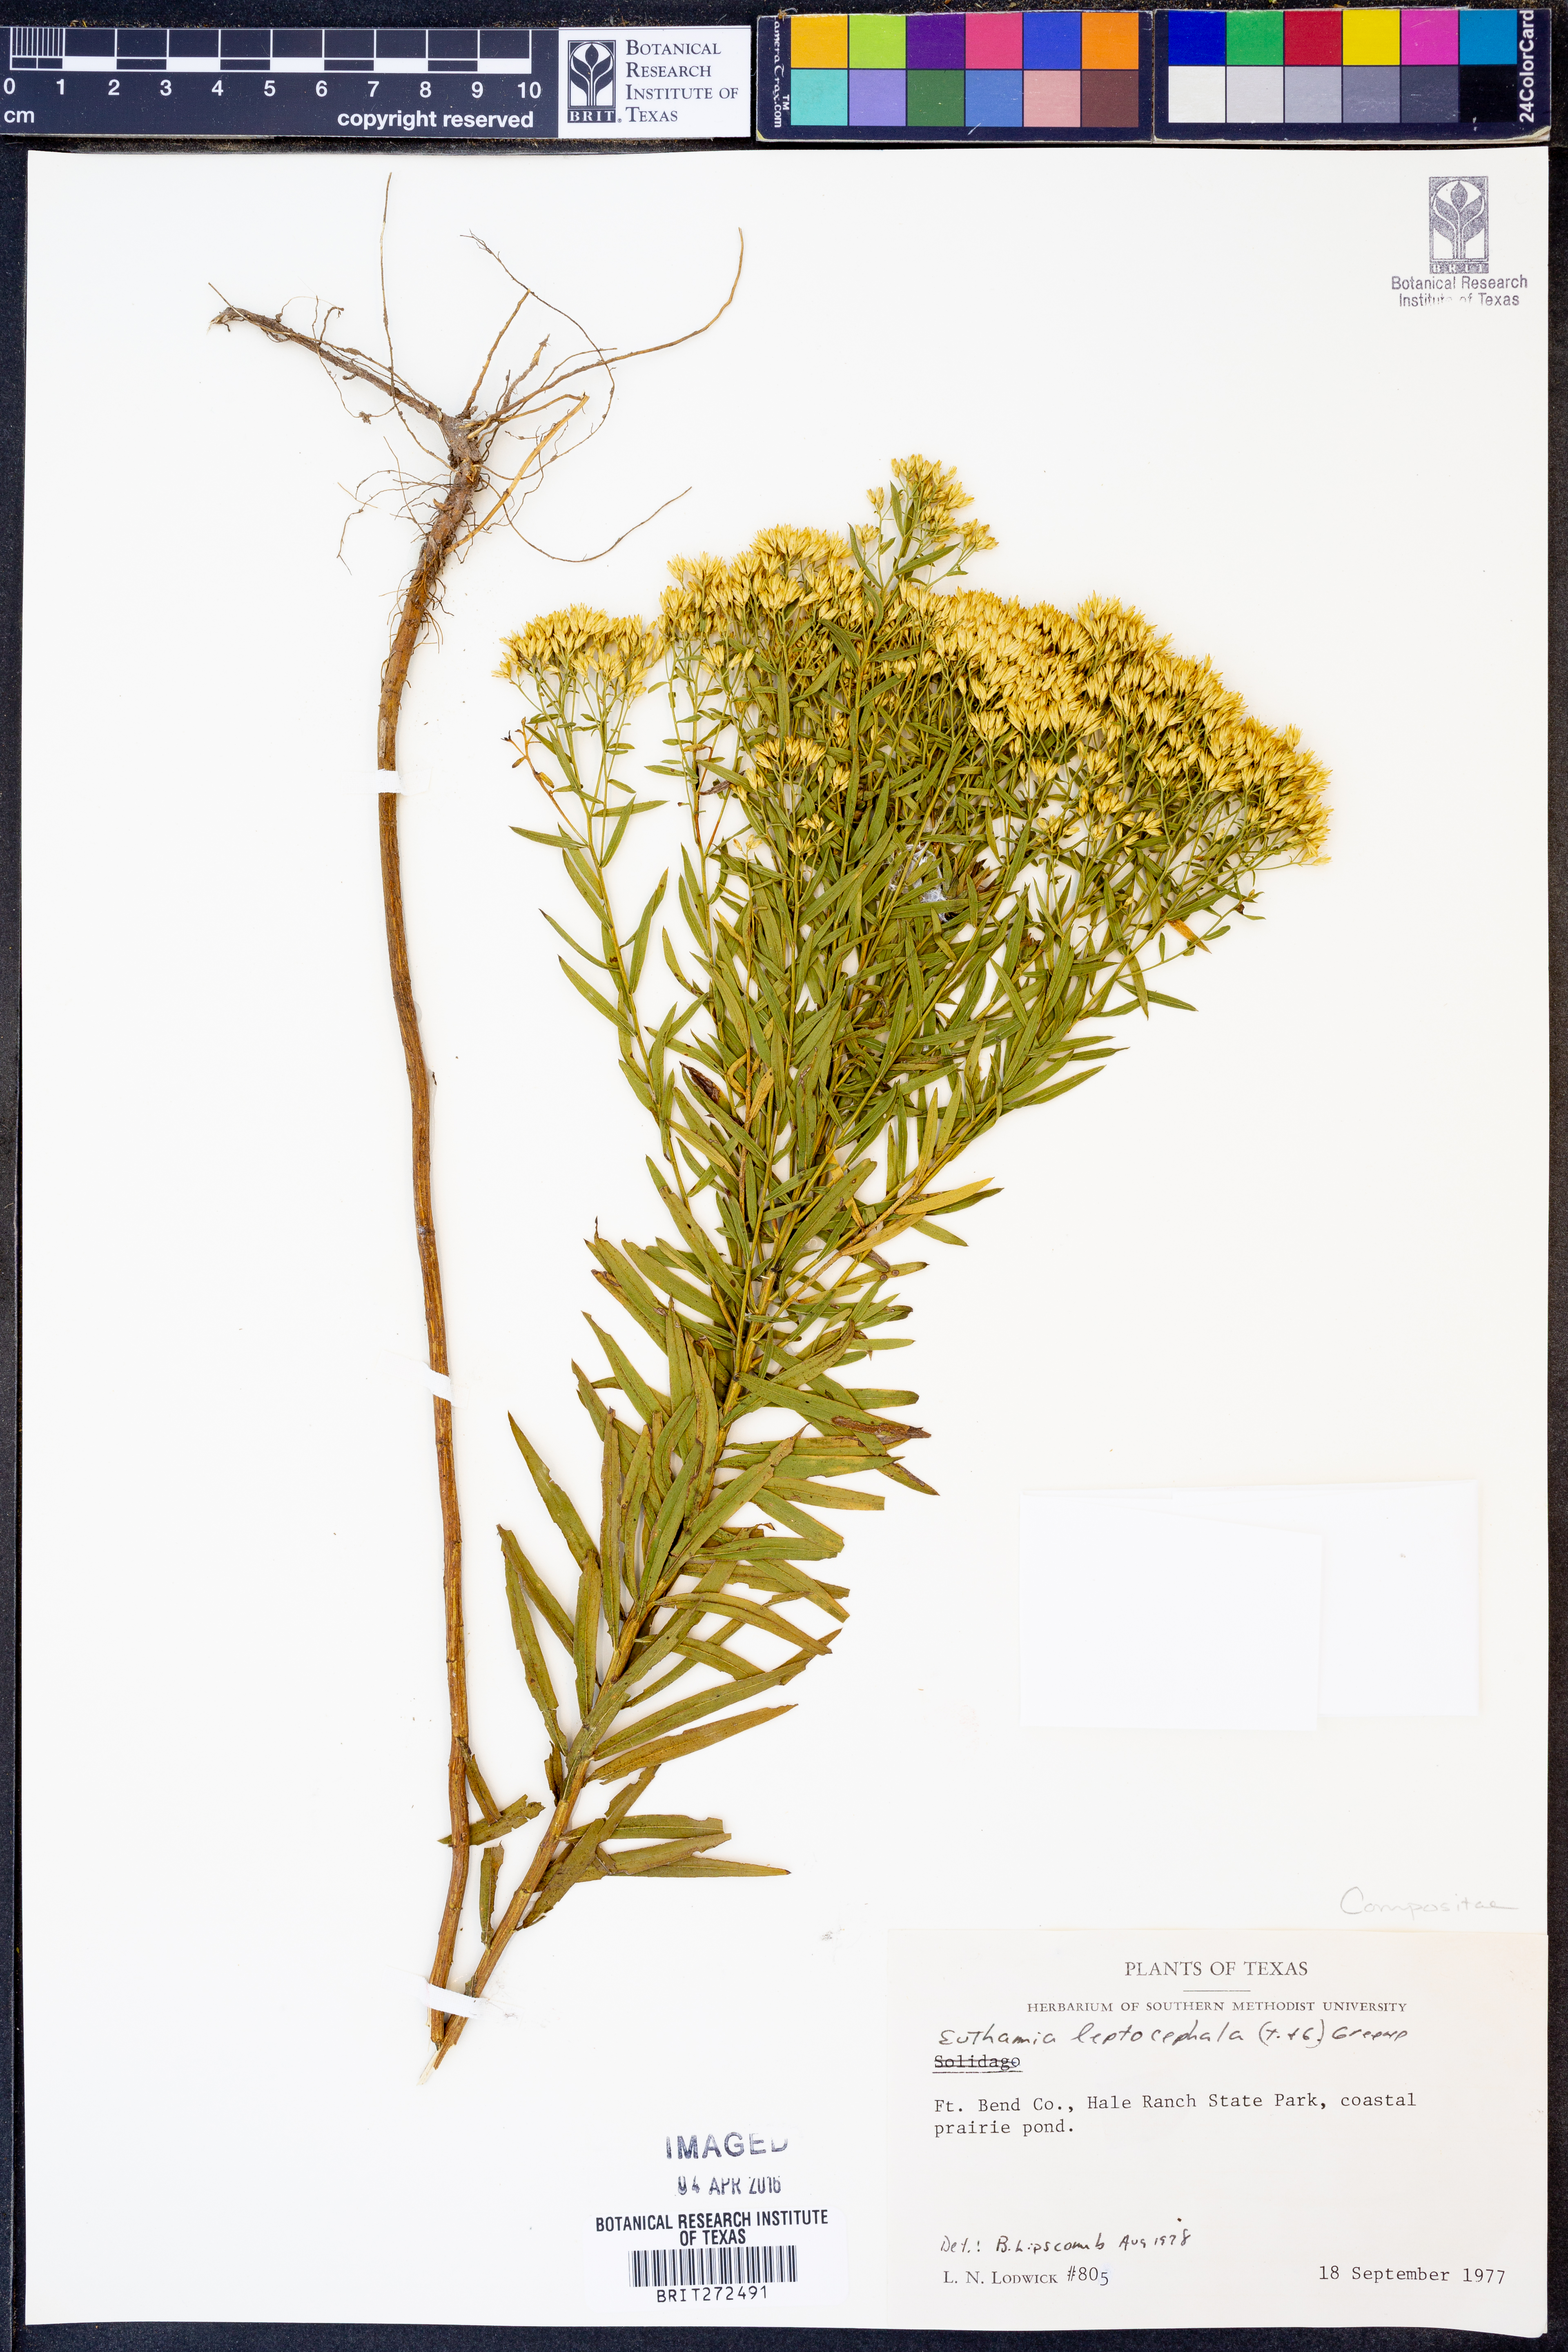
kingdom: Plantae
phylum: Tracheophyta
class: Magnoliopsida
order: Asterales
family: Asteraceae
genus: Euthamia
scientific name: Euthamia leptocephala
